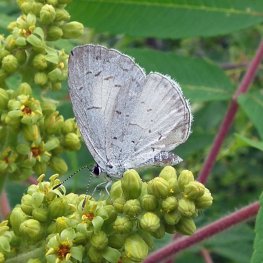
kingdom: Animalia
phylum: Arthropoda
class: Insecta
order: Lepidoptera
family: Lycaenidae
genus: Cyaniris
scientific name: Cyaniris neglecta
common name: Summer Azure
